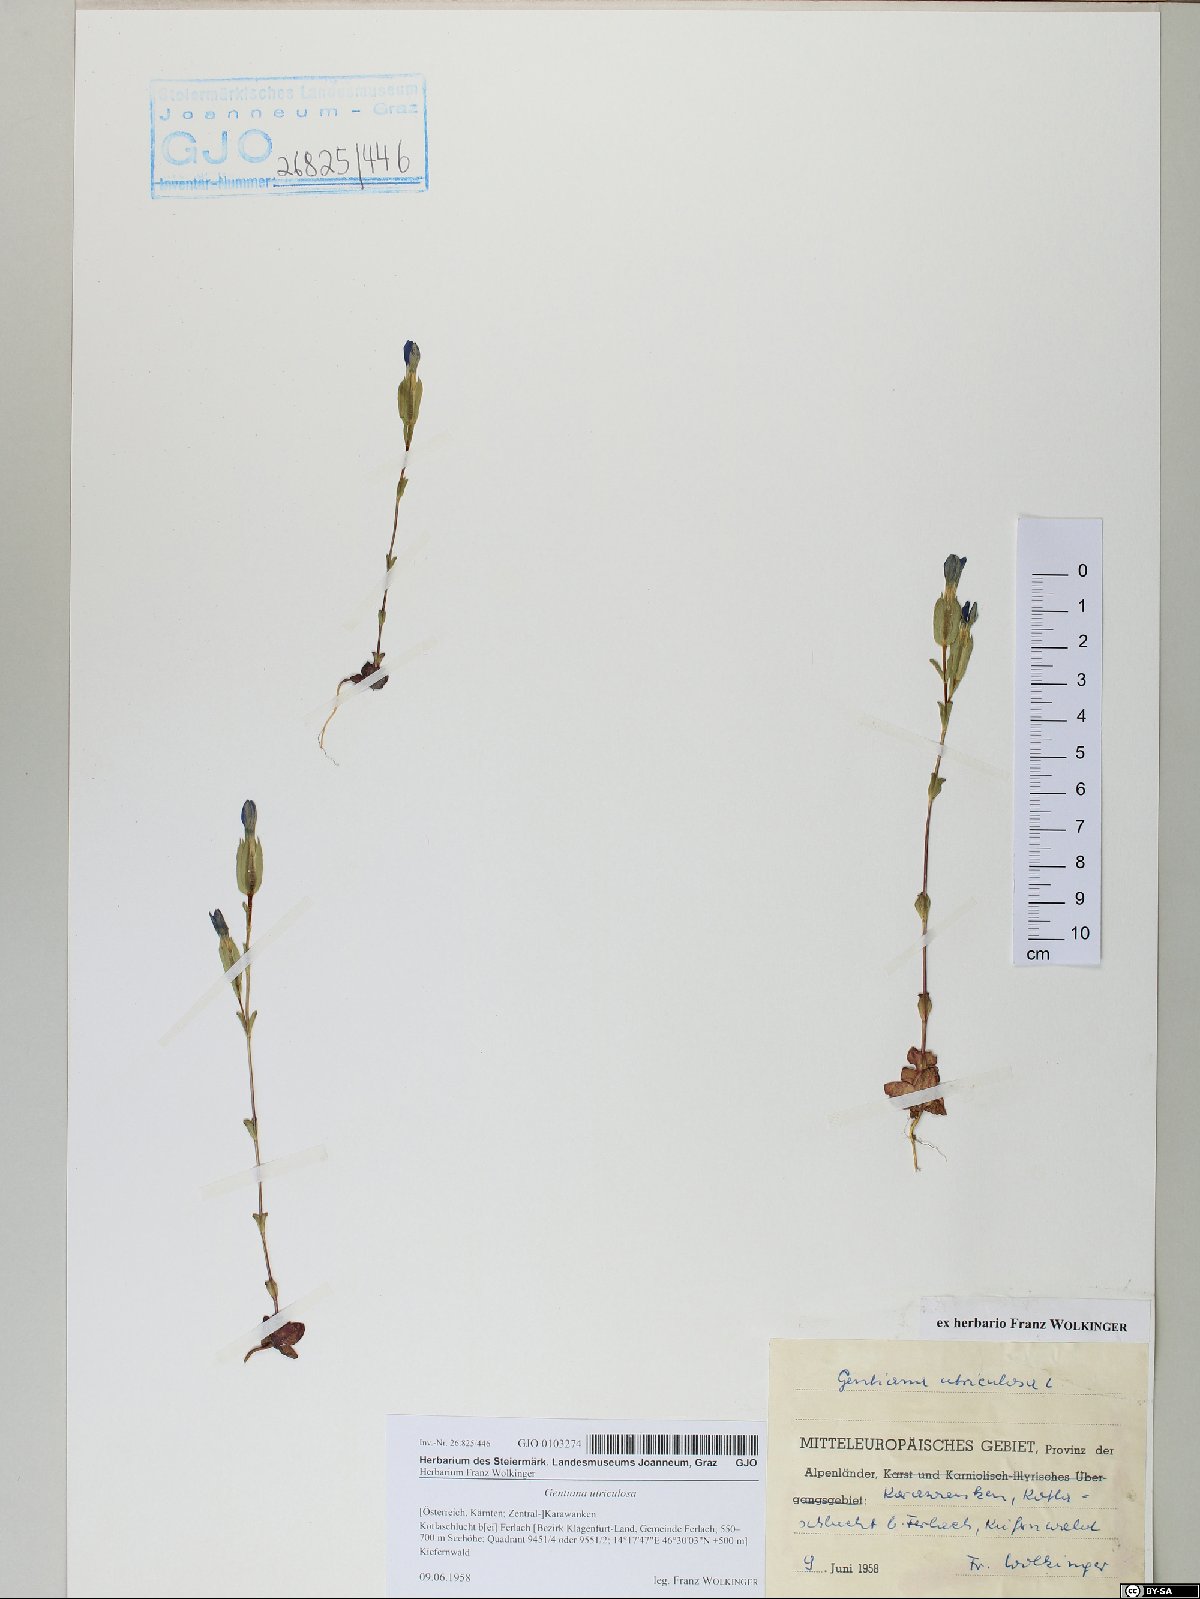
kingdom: Plantae
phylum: Tracheophyta
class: Magnoliopsida
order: Gentianales
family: Gentianaceae
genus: Gentiana
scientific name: Gentiana utriculosa
